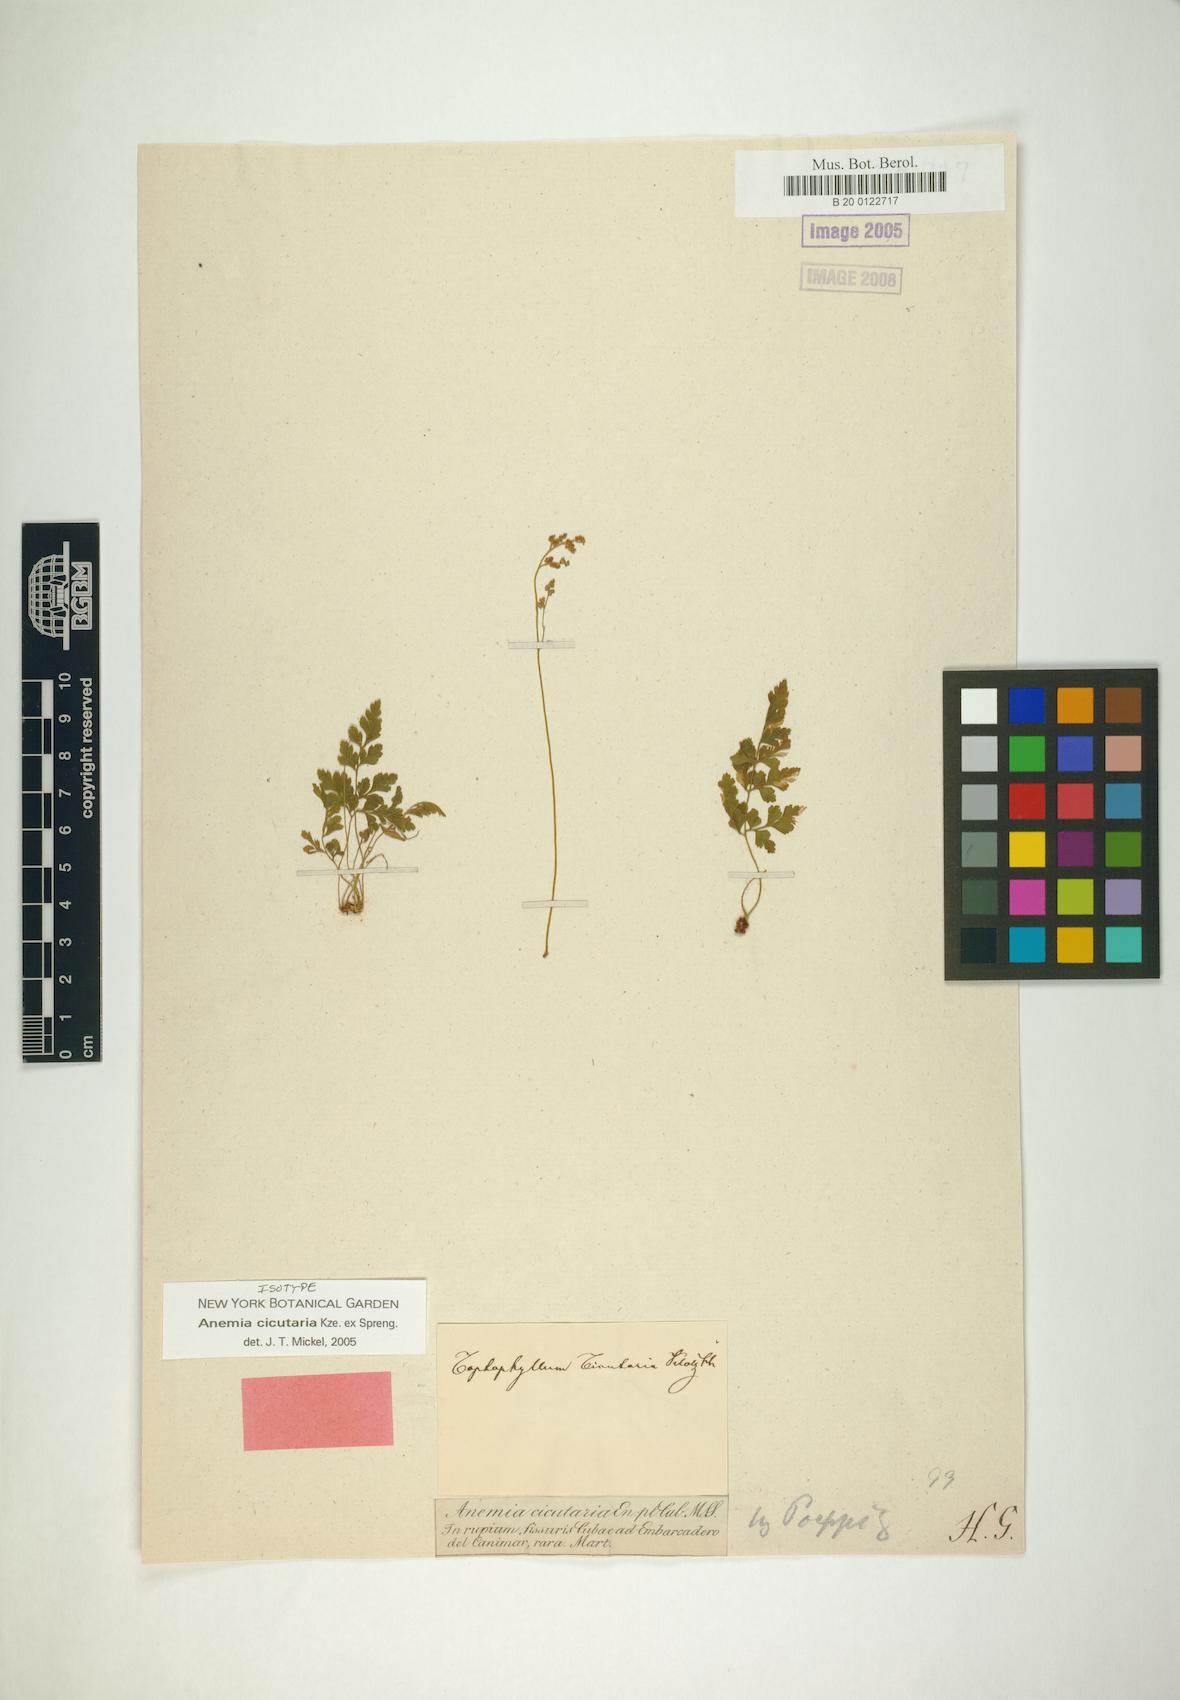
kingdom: Plantae
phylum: Tracheophyta
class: Polypodiopsida
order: Schizaeales
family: Anemiaceae
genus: Anemia
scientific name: Anemia cicutaria
